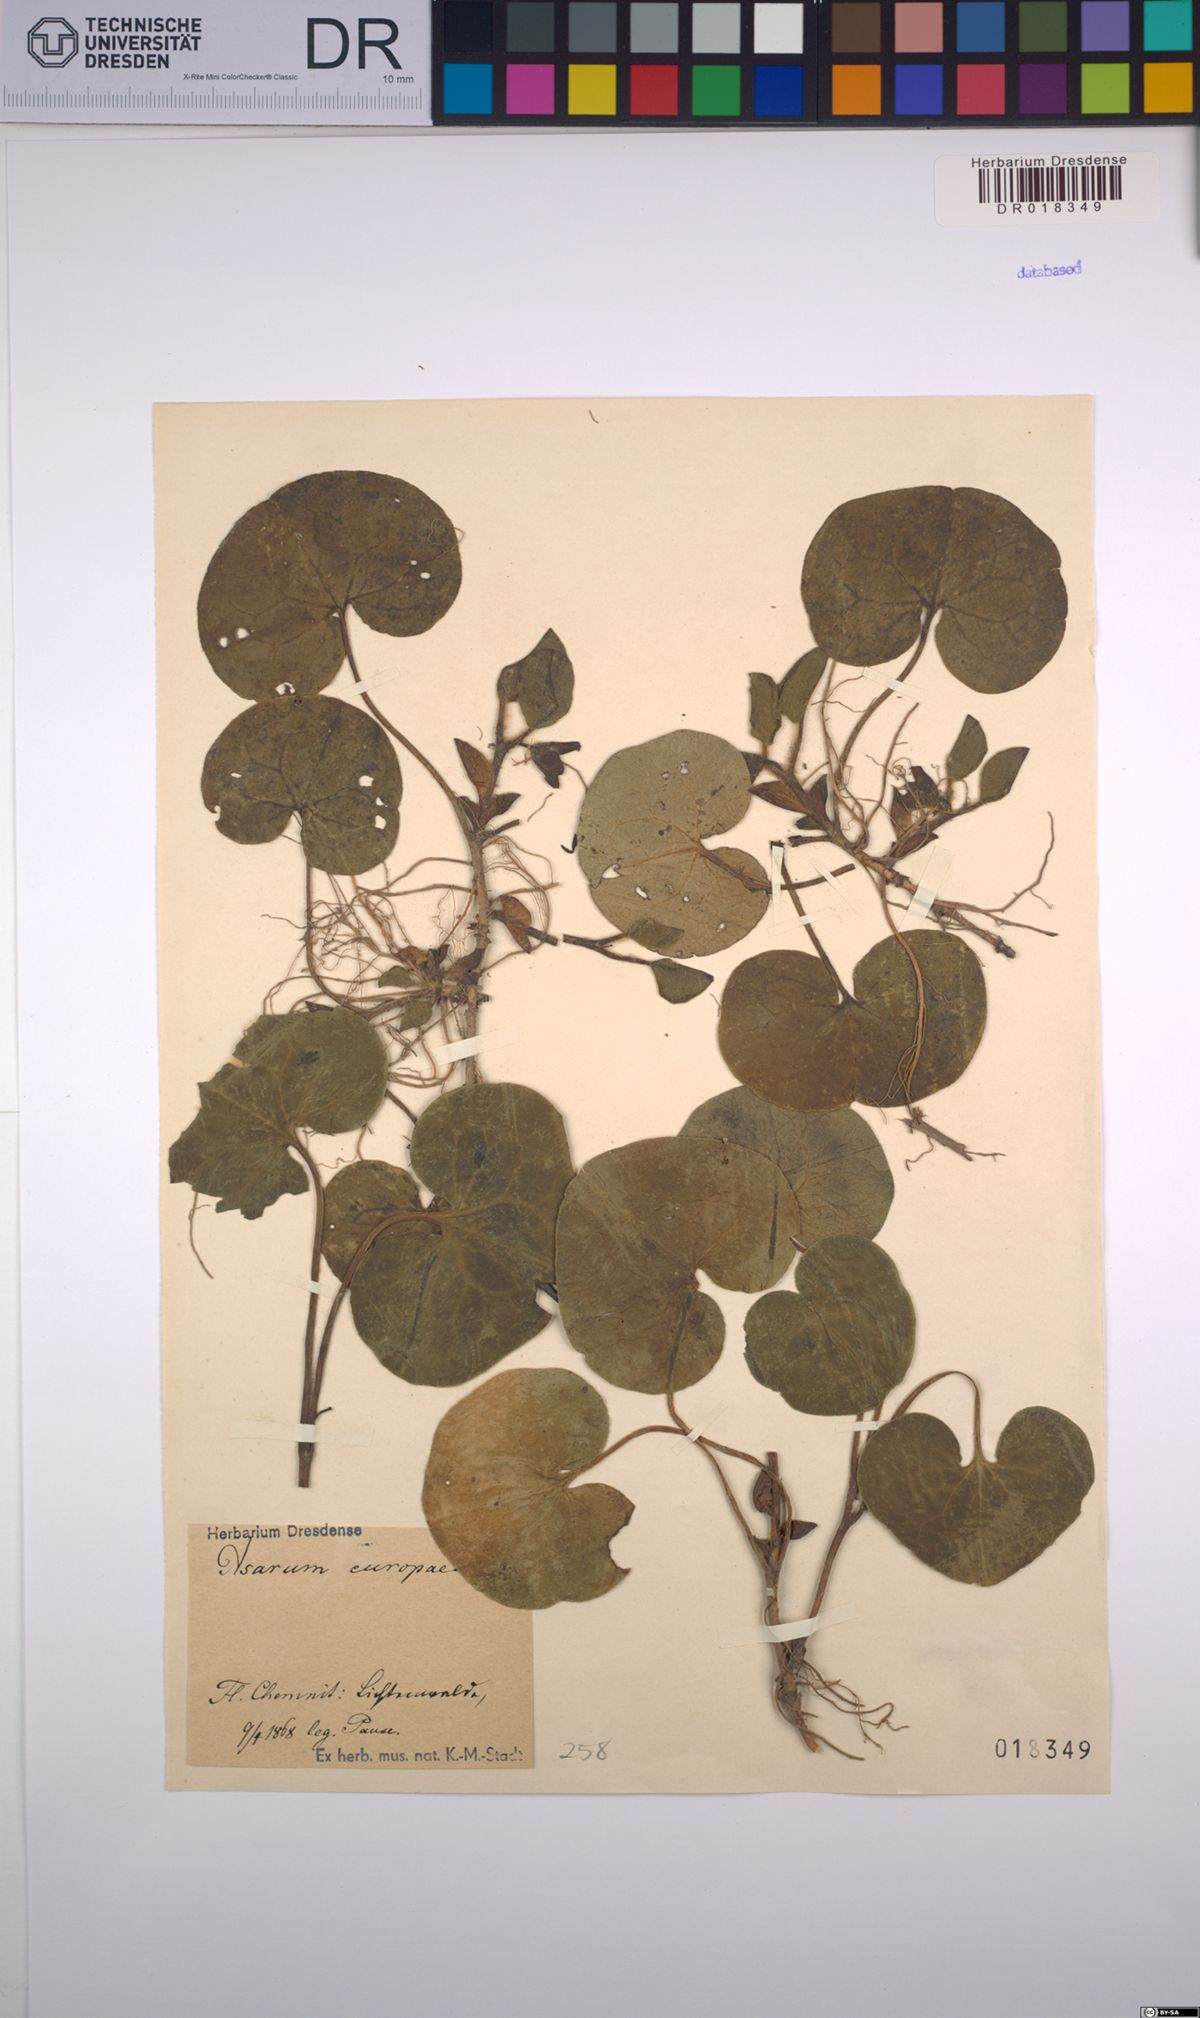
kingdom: Plantae
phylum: Tracheophyta
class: Magnoliopsida
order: Piperales
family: Aristolochiaceae
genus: Asarum
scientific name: Asarum europaeum
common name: Asarabacca
